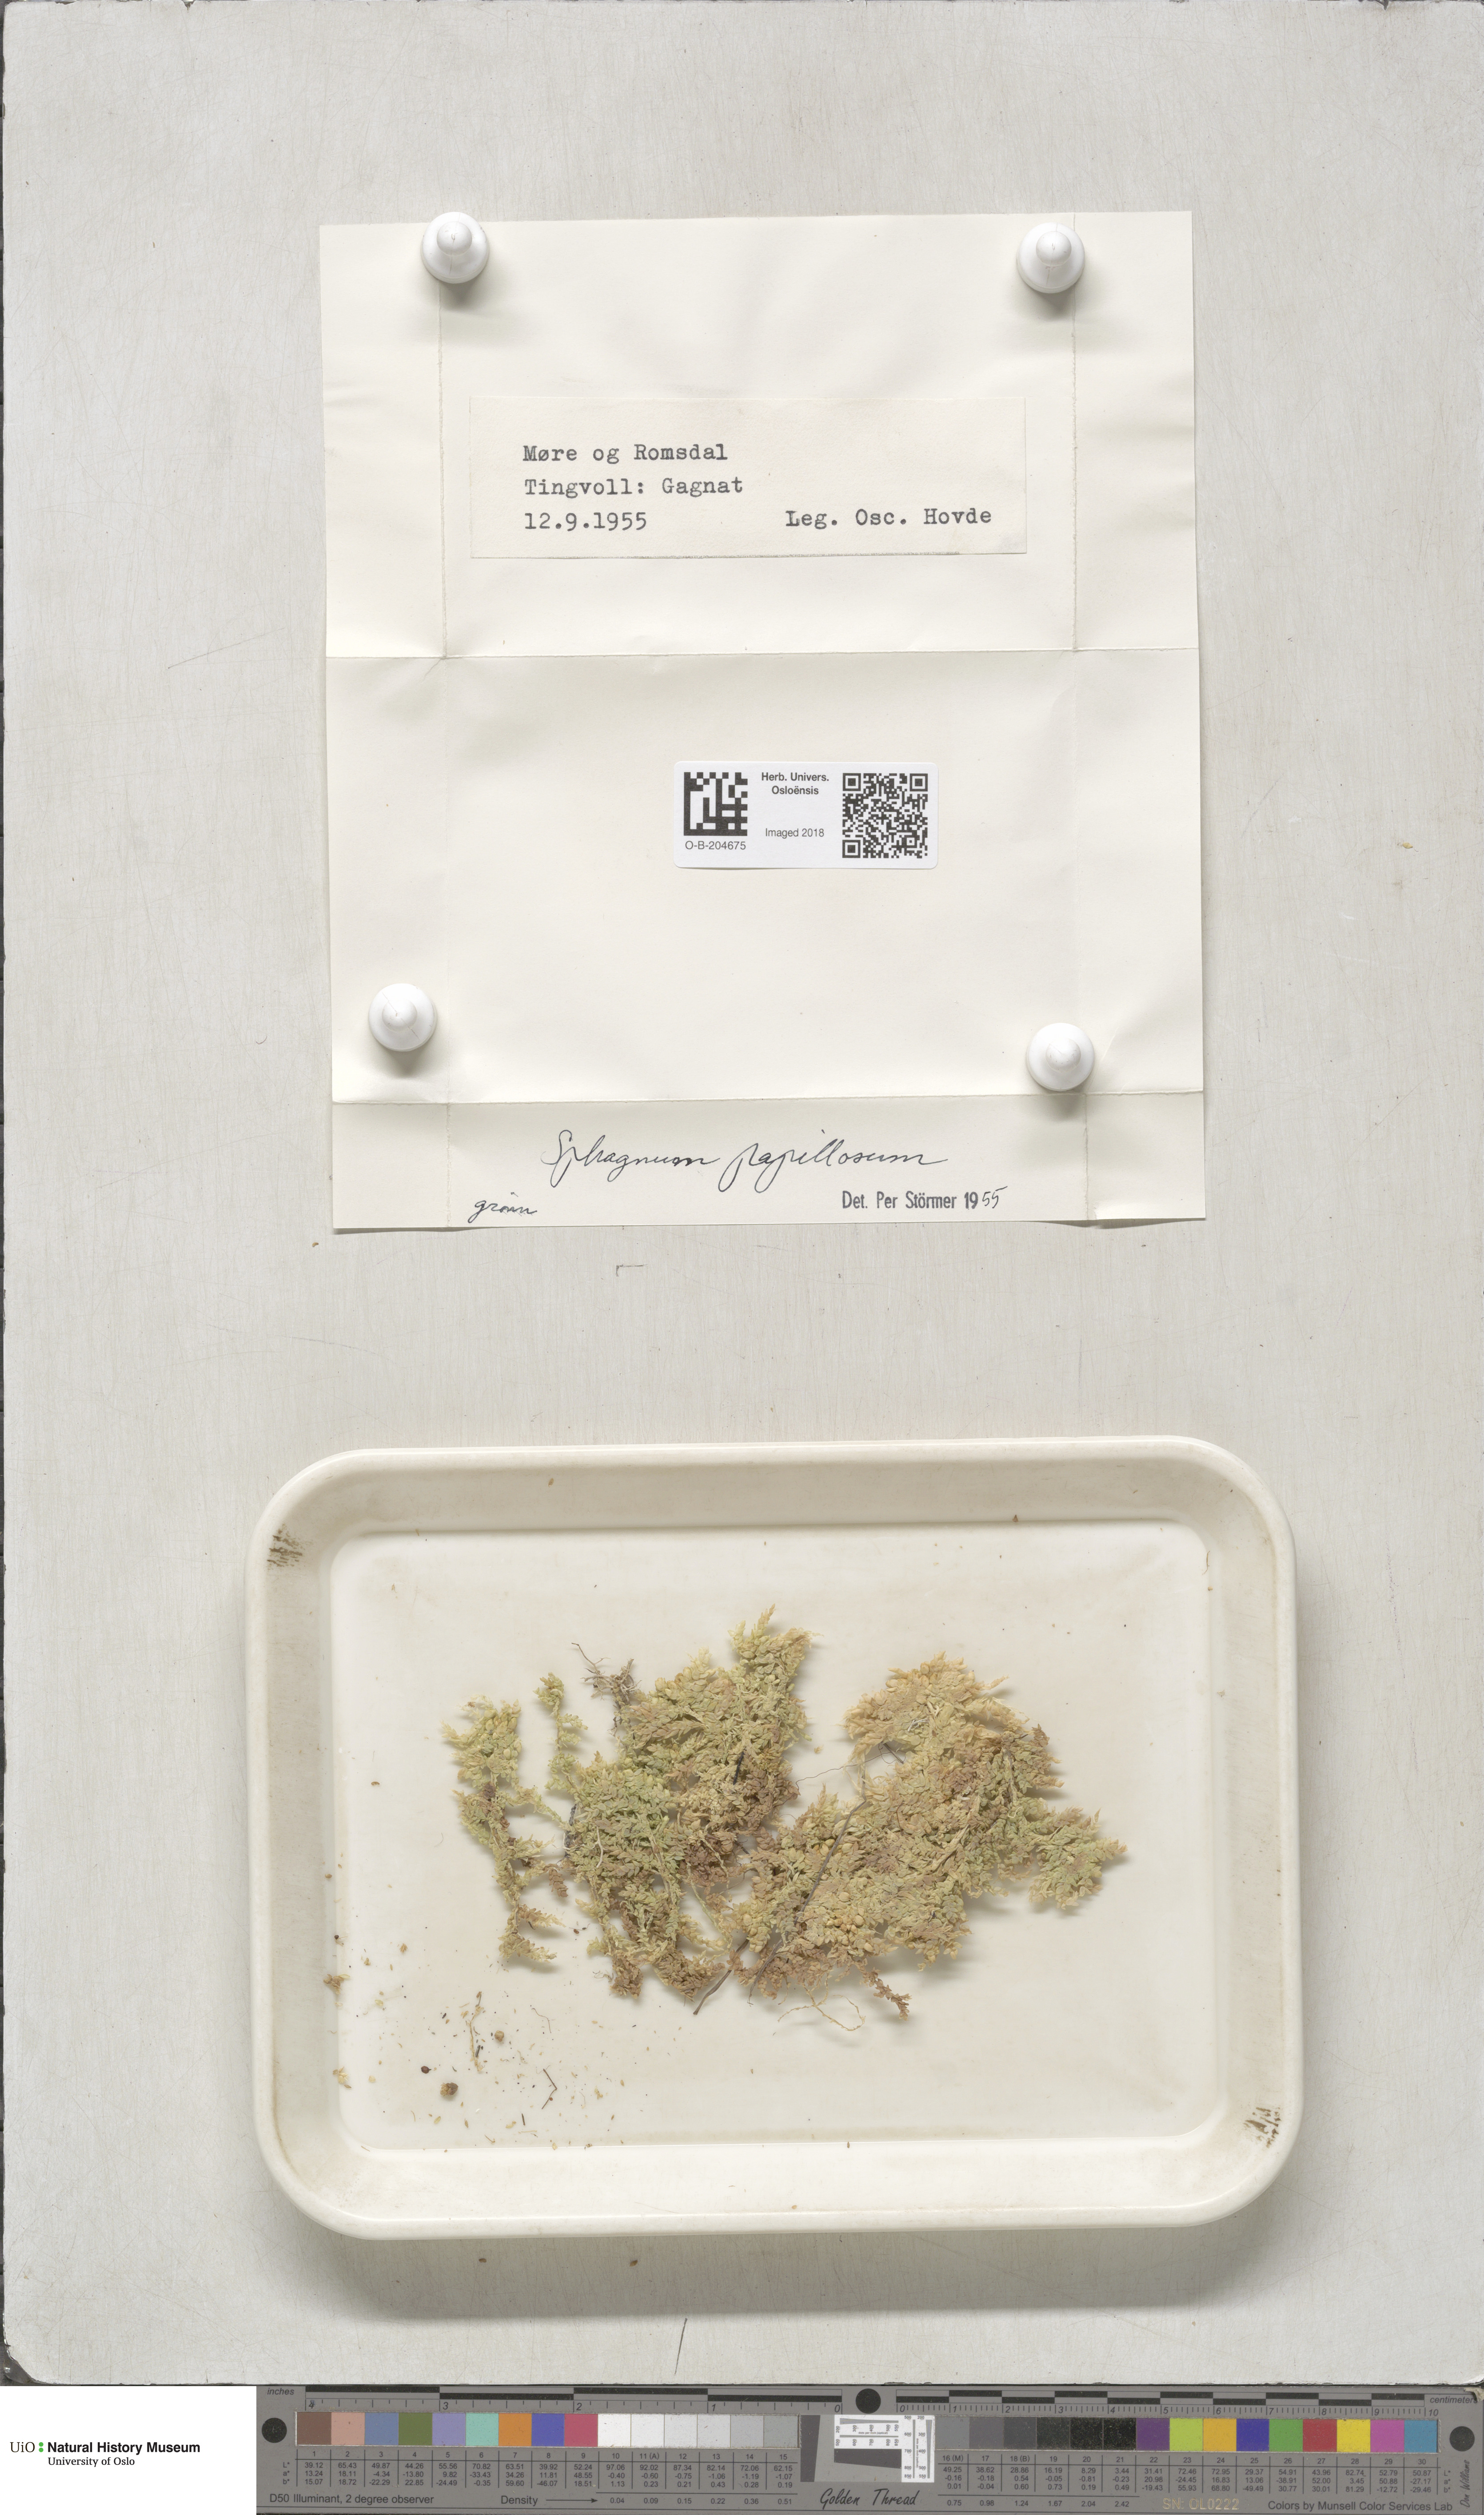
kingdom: Plantae
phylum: Bryophyta
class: Sphagnopsida
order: Sphagnales
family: Sphagnaceae
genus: Sphagnum
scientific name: Sphagnum papillosum
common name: Papillose peat moss
